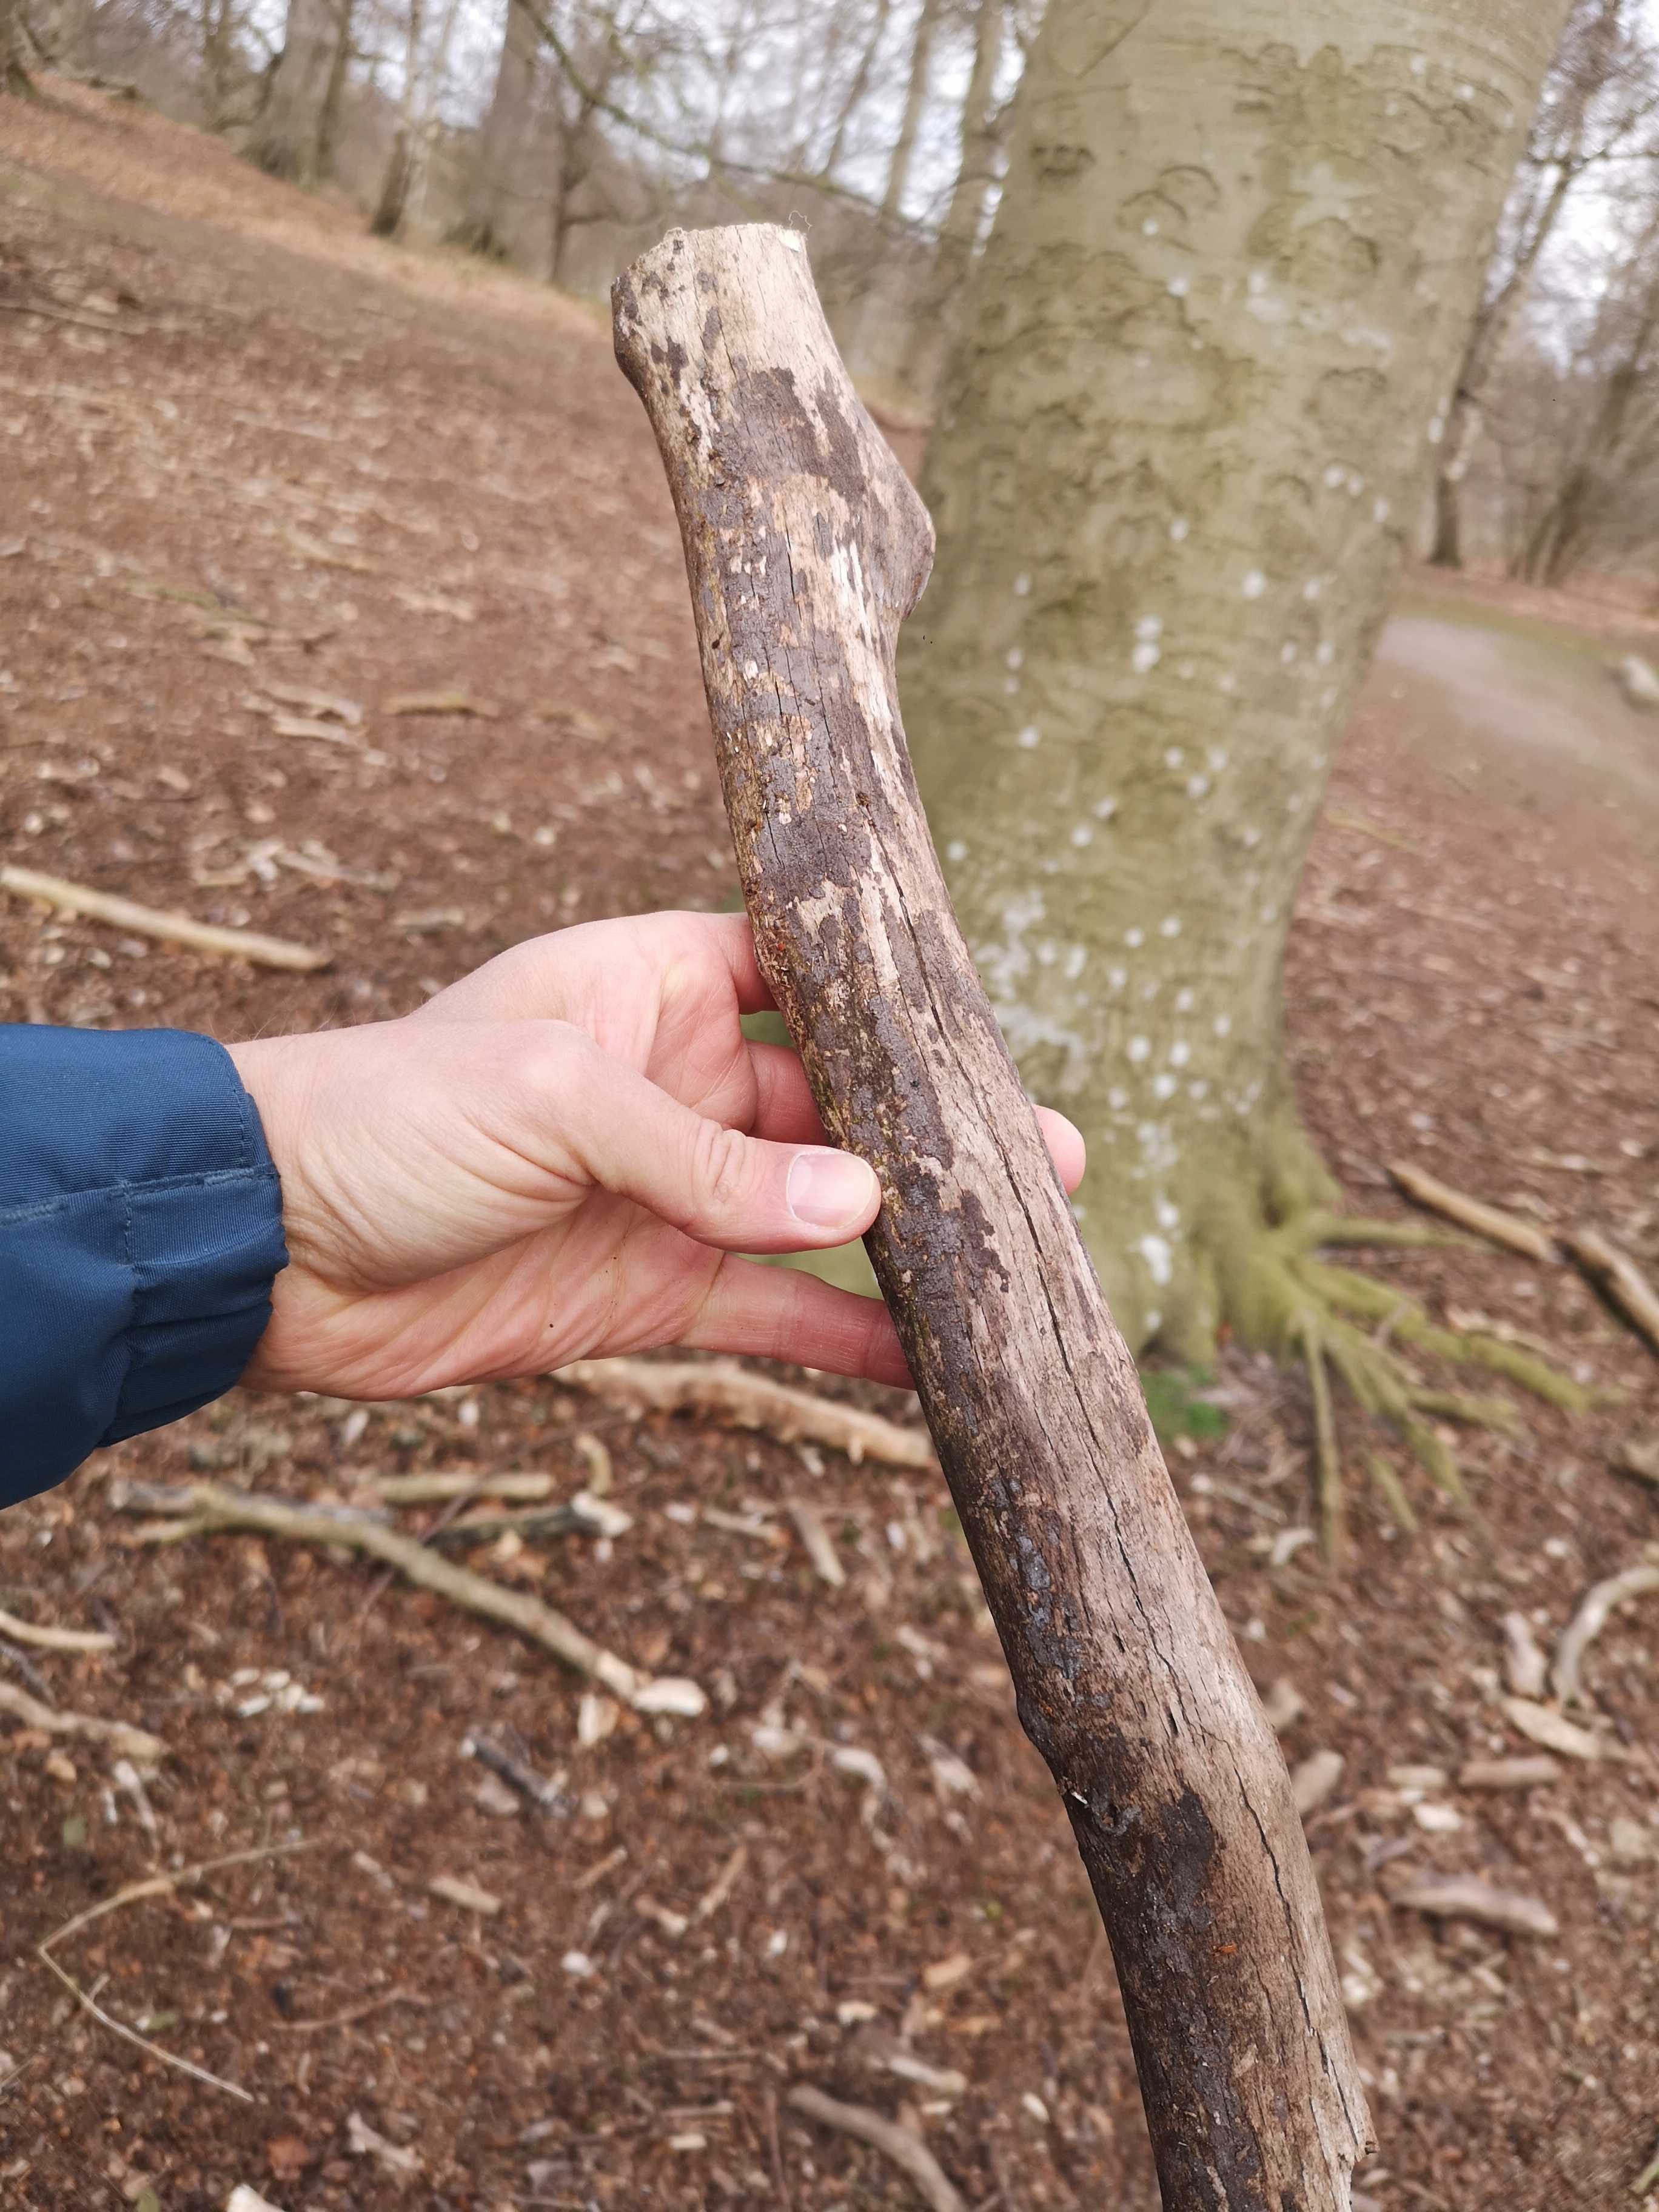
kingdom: Fungi
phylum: Basidiomycota
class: Agaricomycetes
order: Russulales
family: Peniophoraceae
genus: Peniophora
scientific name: Peniophora
